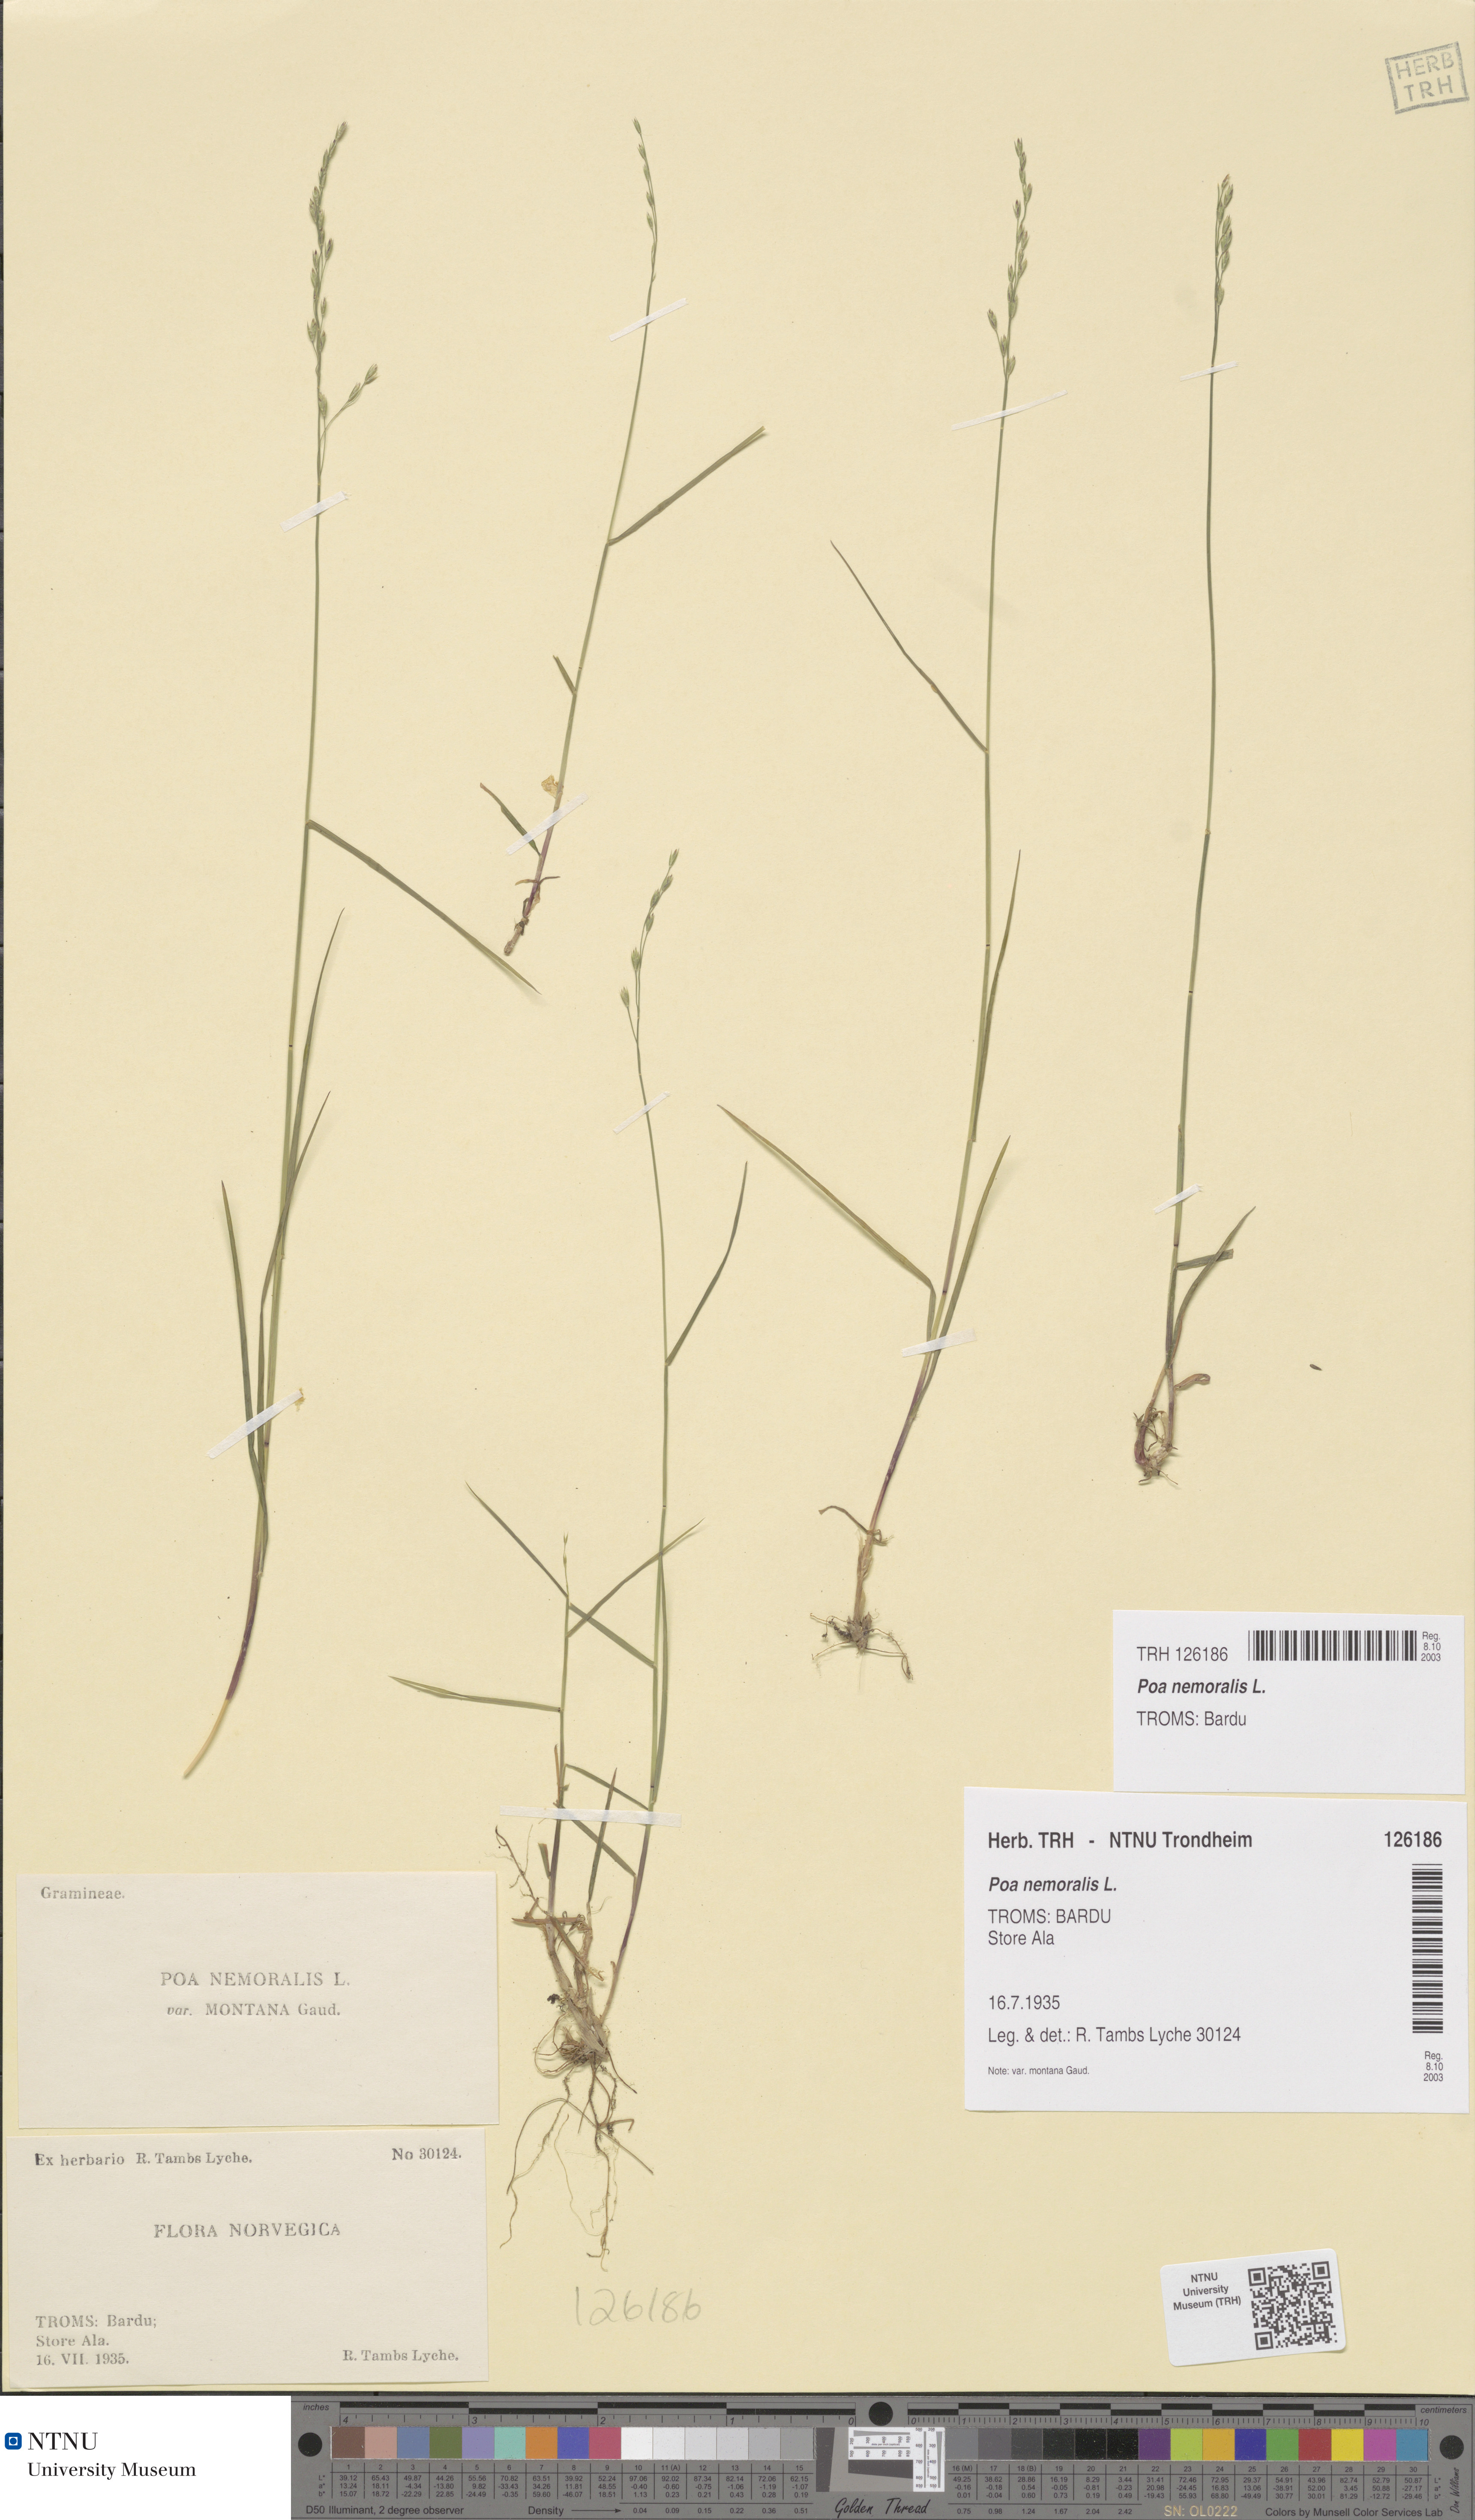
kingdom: Plantae
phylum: Tracheophyta
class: Liliopsida
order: Poales
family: Poaceae
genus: Poa
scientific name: Poa nemoralis
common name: Wood bluegrass
